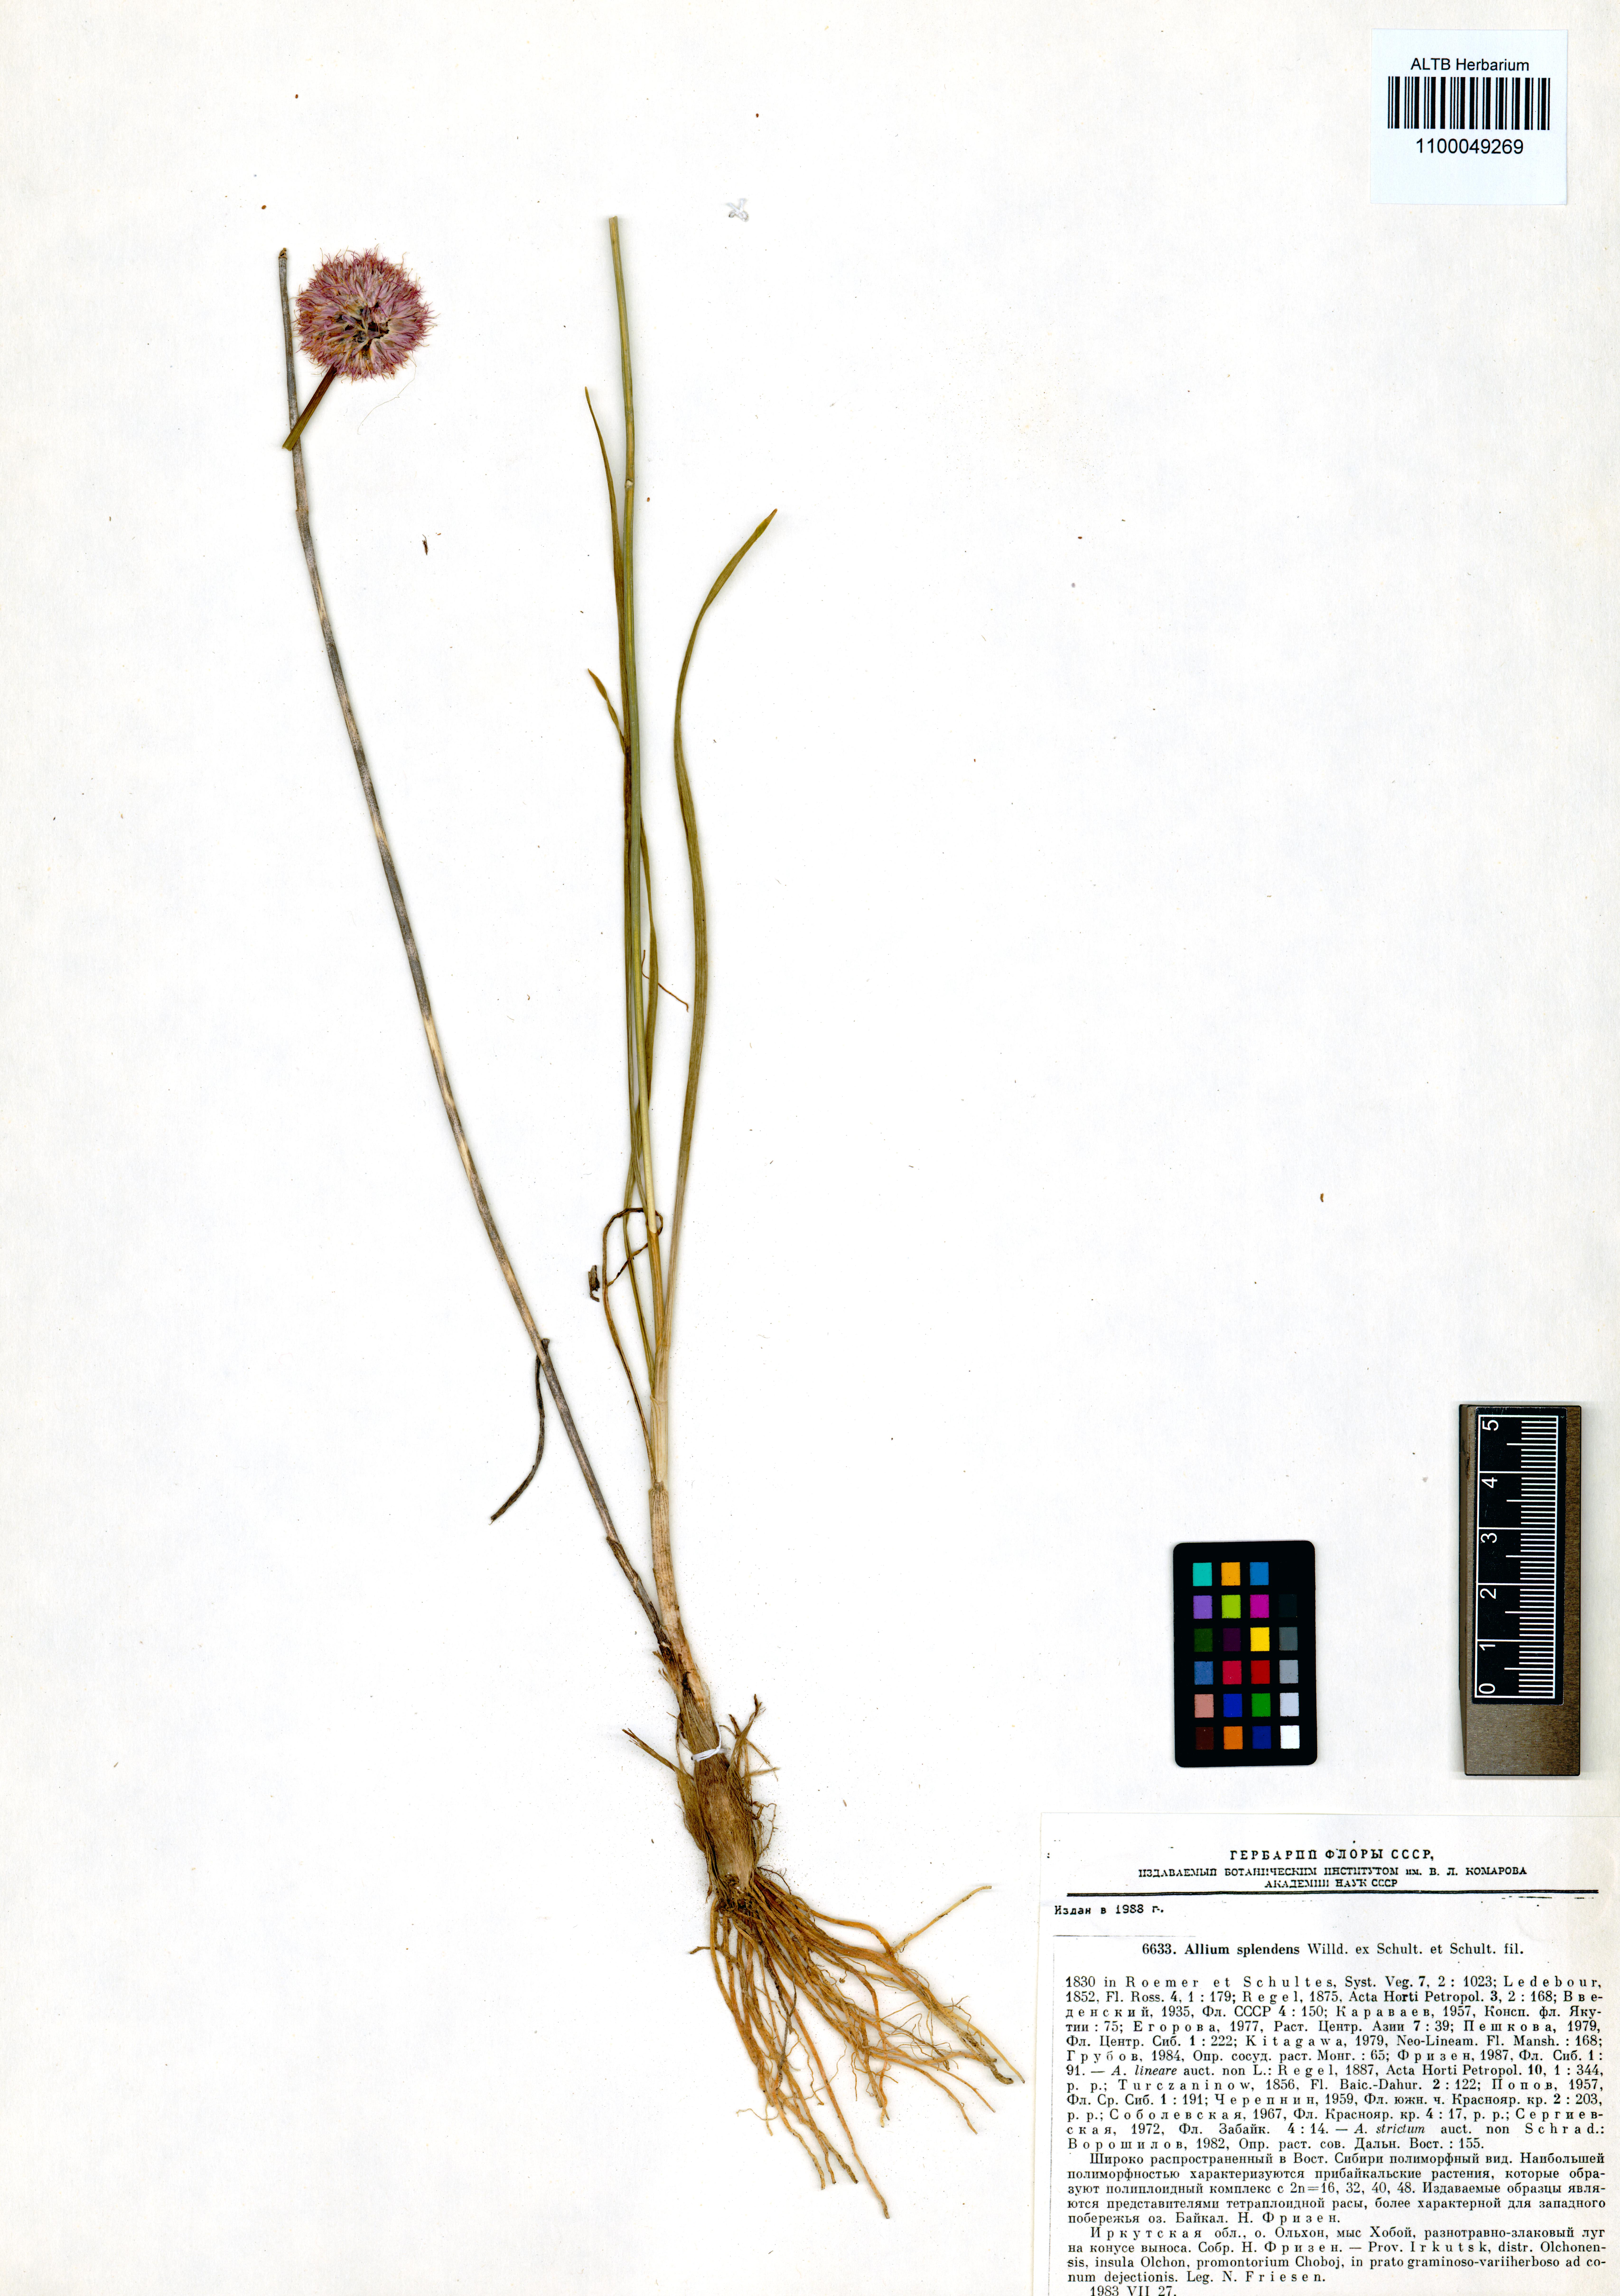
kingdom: Plantae
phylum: Tracheophyta
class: Liliopsida
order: Asparagales
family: Amaryllidaceae
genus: Allium
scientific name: Allium splendens
